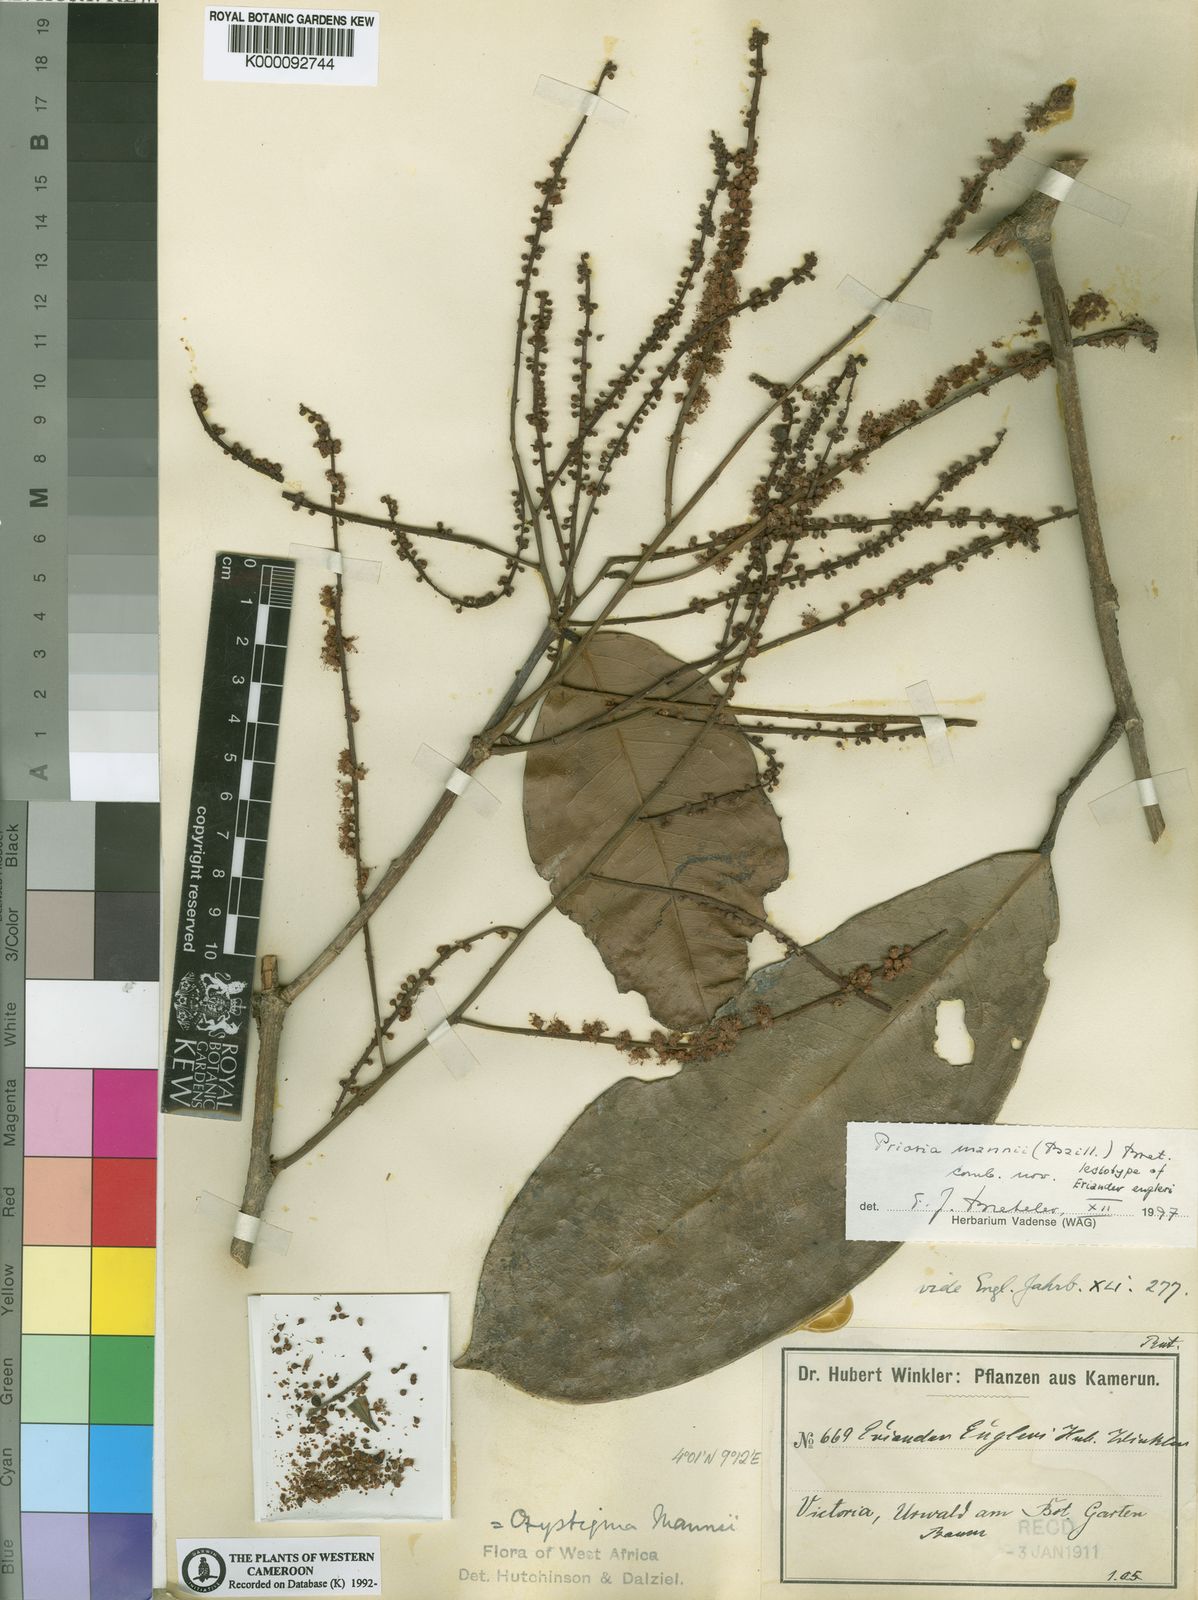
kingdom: Plantae
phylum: Tracheophyta
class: Magnoliopsida
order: Fabales
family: Fabaceae
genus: Prioria
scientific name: Prioria mannii
